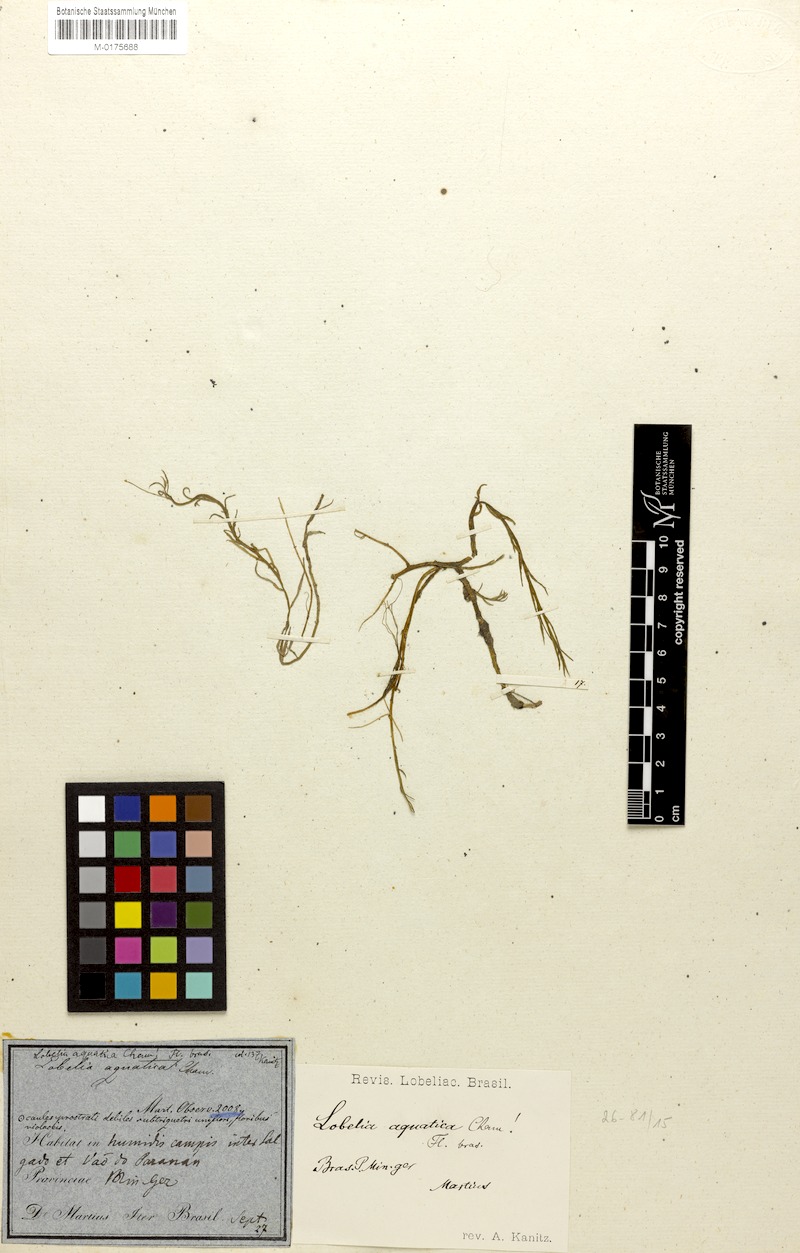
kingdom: Plantae
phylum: Tracheophyta
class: Magnoliopsida
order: Asterales
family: Campanulaceae
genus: Lobelia
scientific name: Lobelia aquatica
